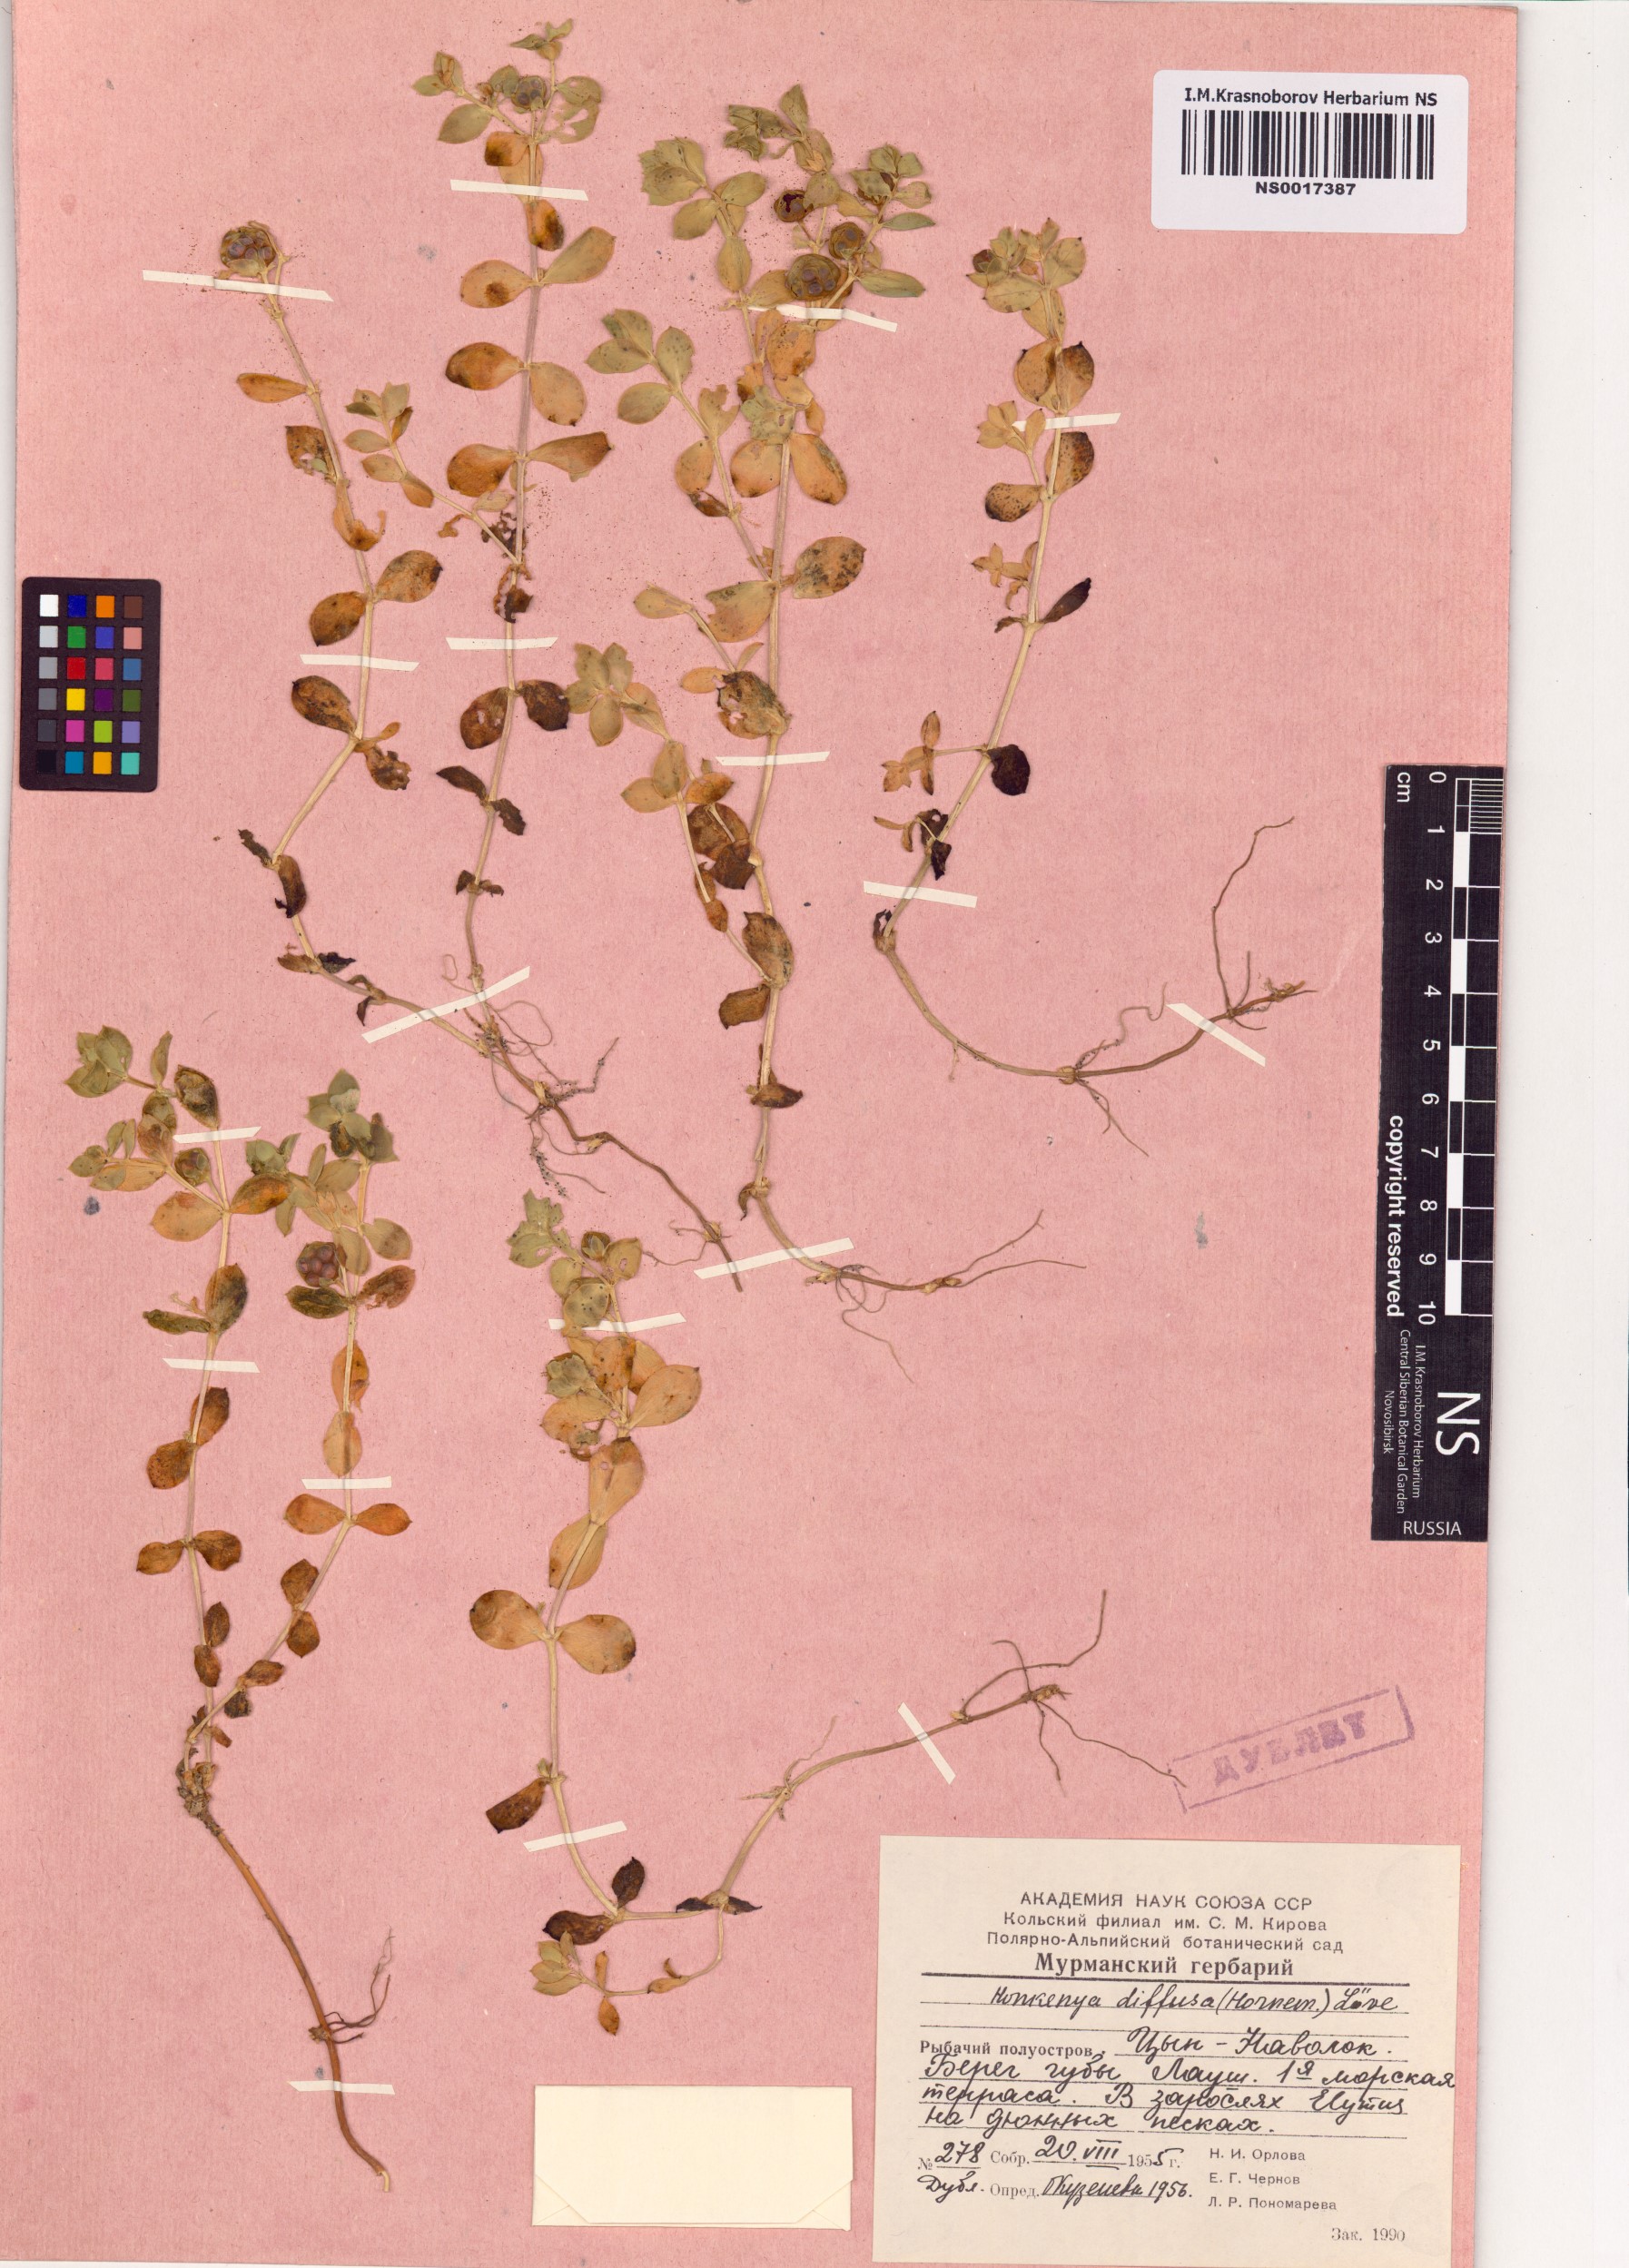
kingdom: Plantae
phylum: Tracheophyta
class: Magnoliopsida
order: Caryophyllales
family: Caryophyllaceae
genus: Honckenya
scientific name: Honckenya peploides
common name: Sea sandwort
